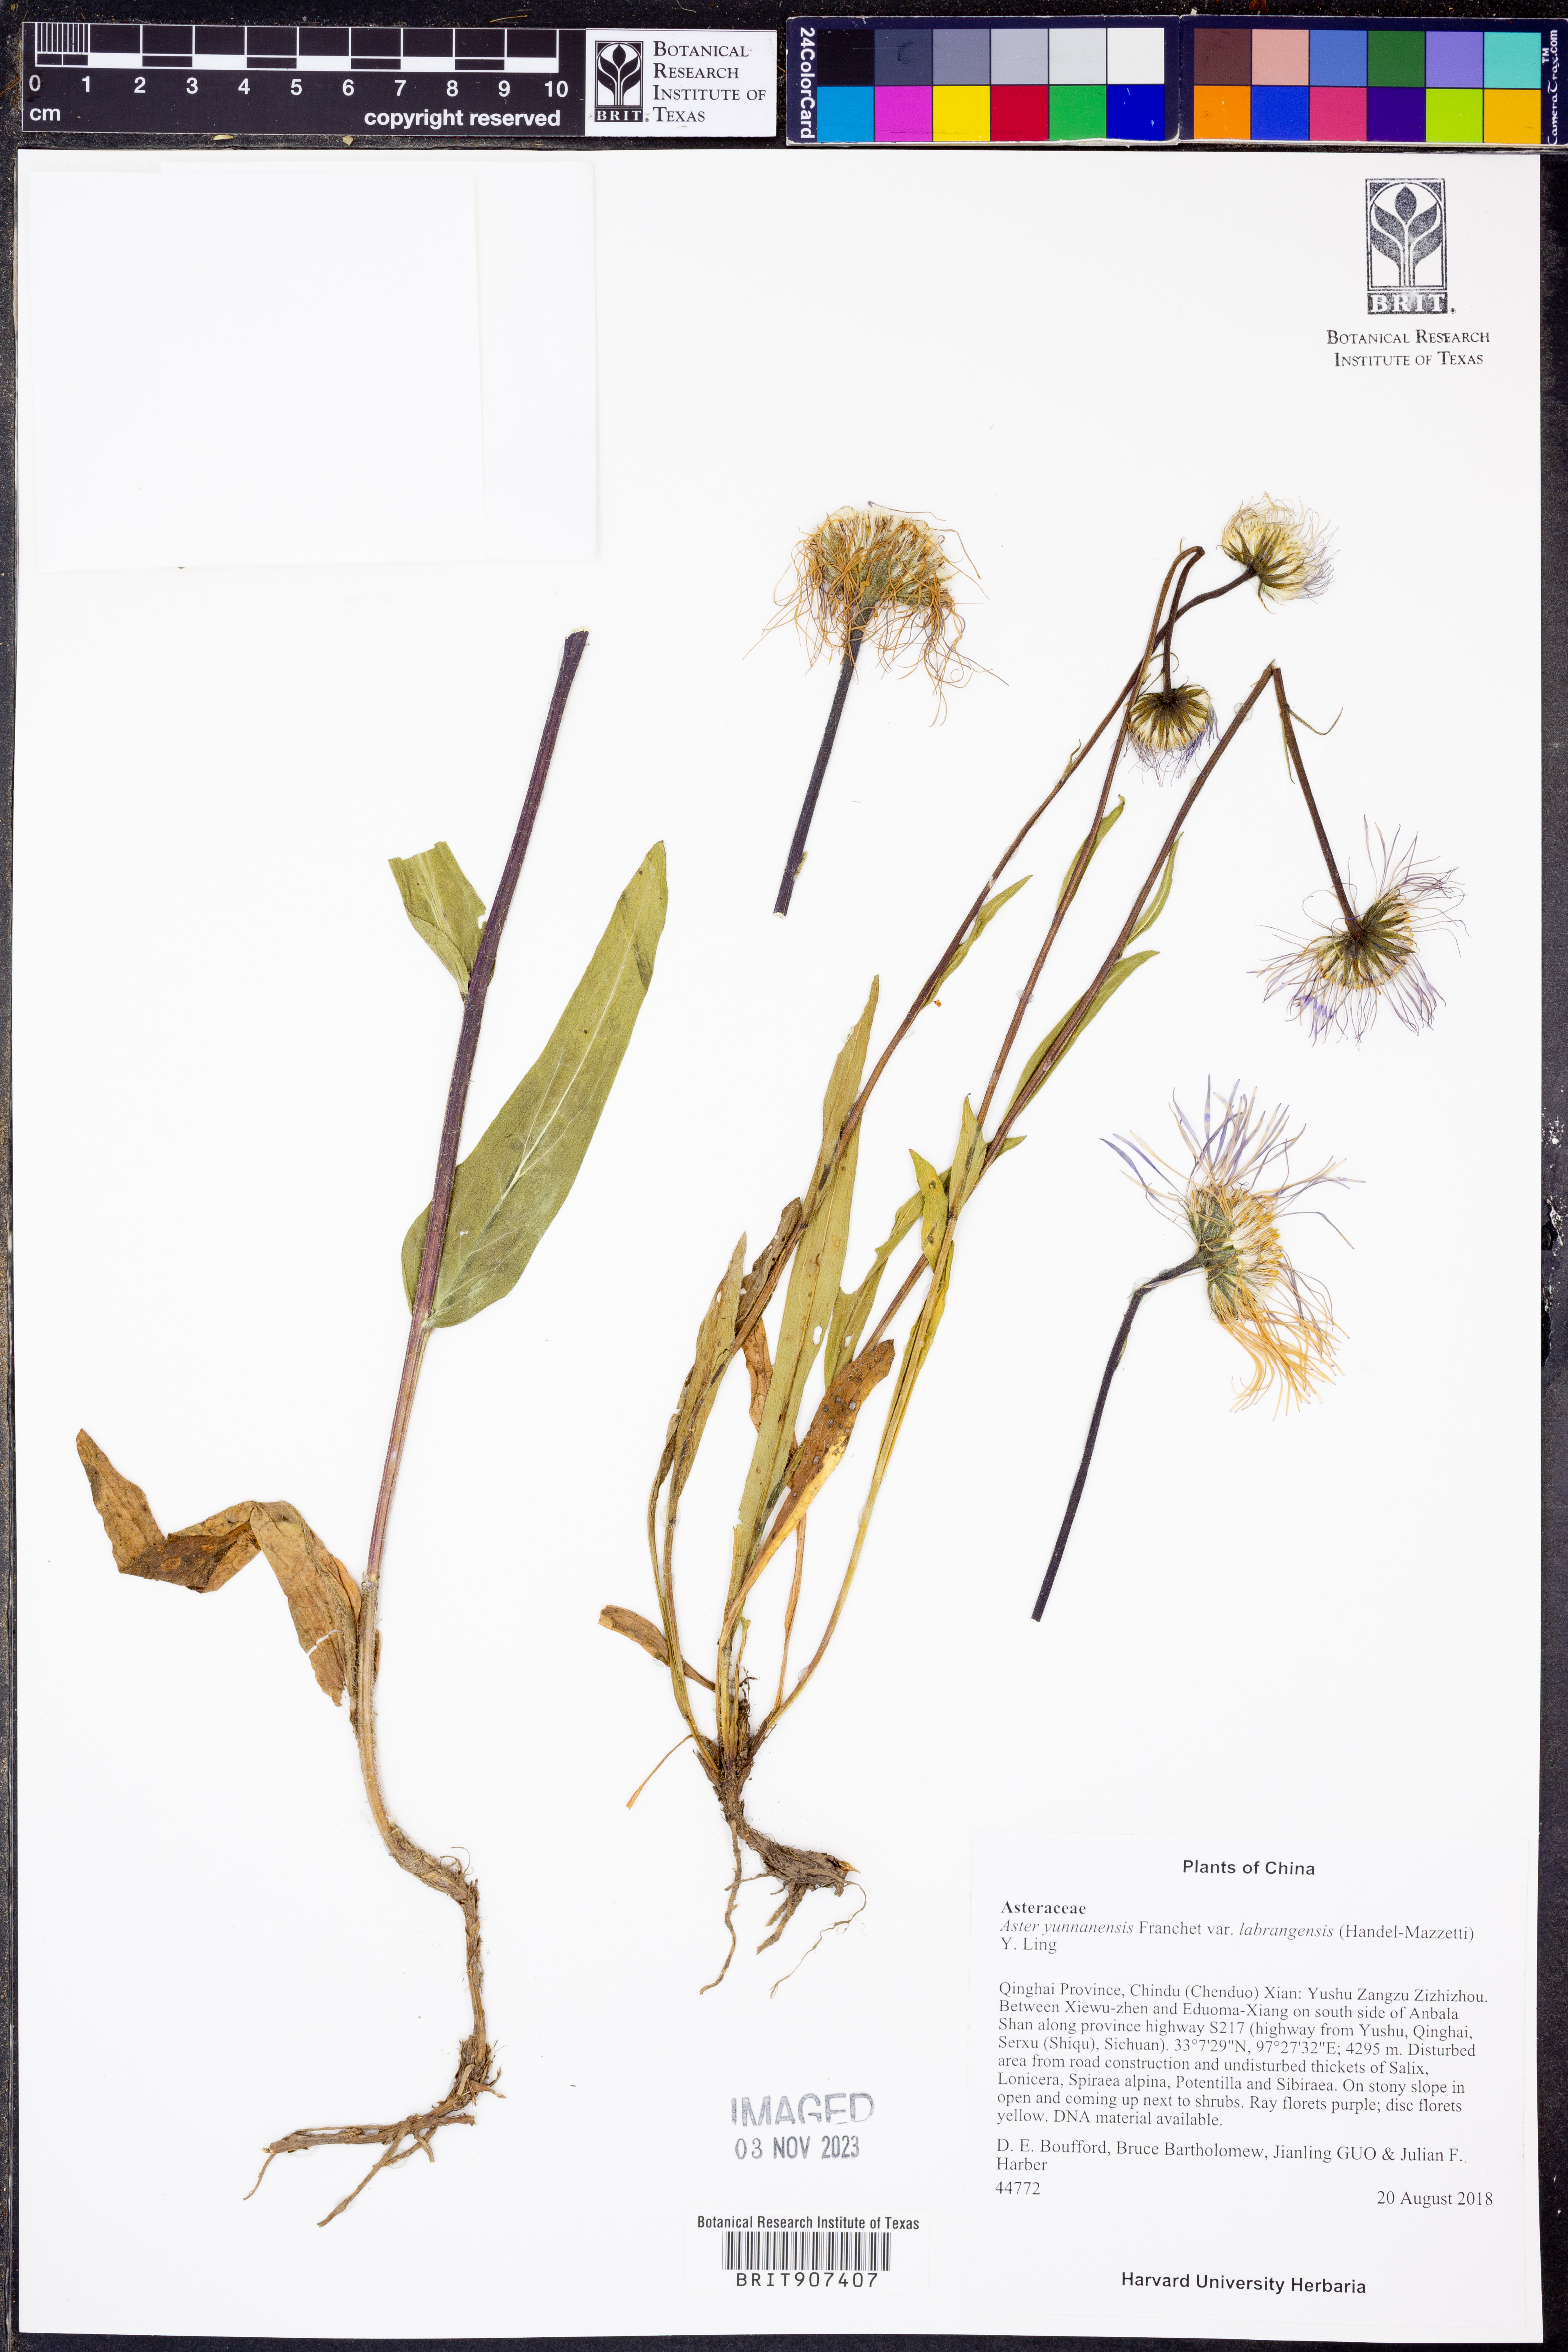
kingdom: Plantae
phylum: Tracheophyta
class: Magnoliopsida
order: Asterales
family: Asteraceae
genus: Tibetiodes
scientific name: Tibetiodes labrangensis
